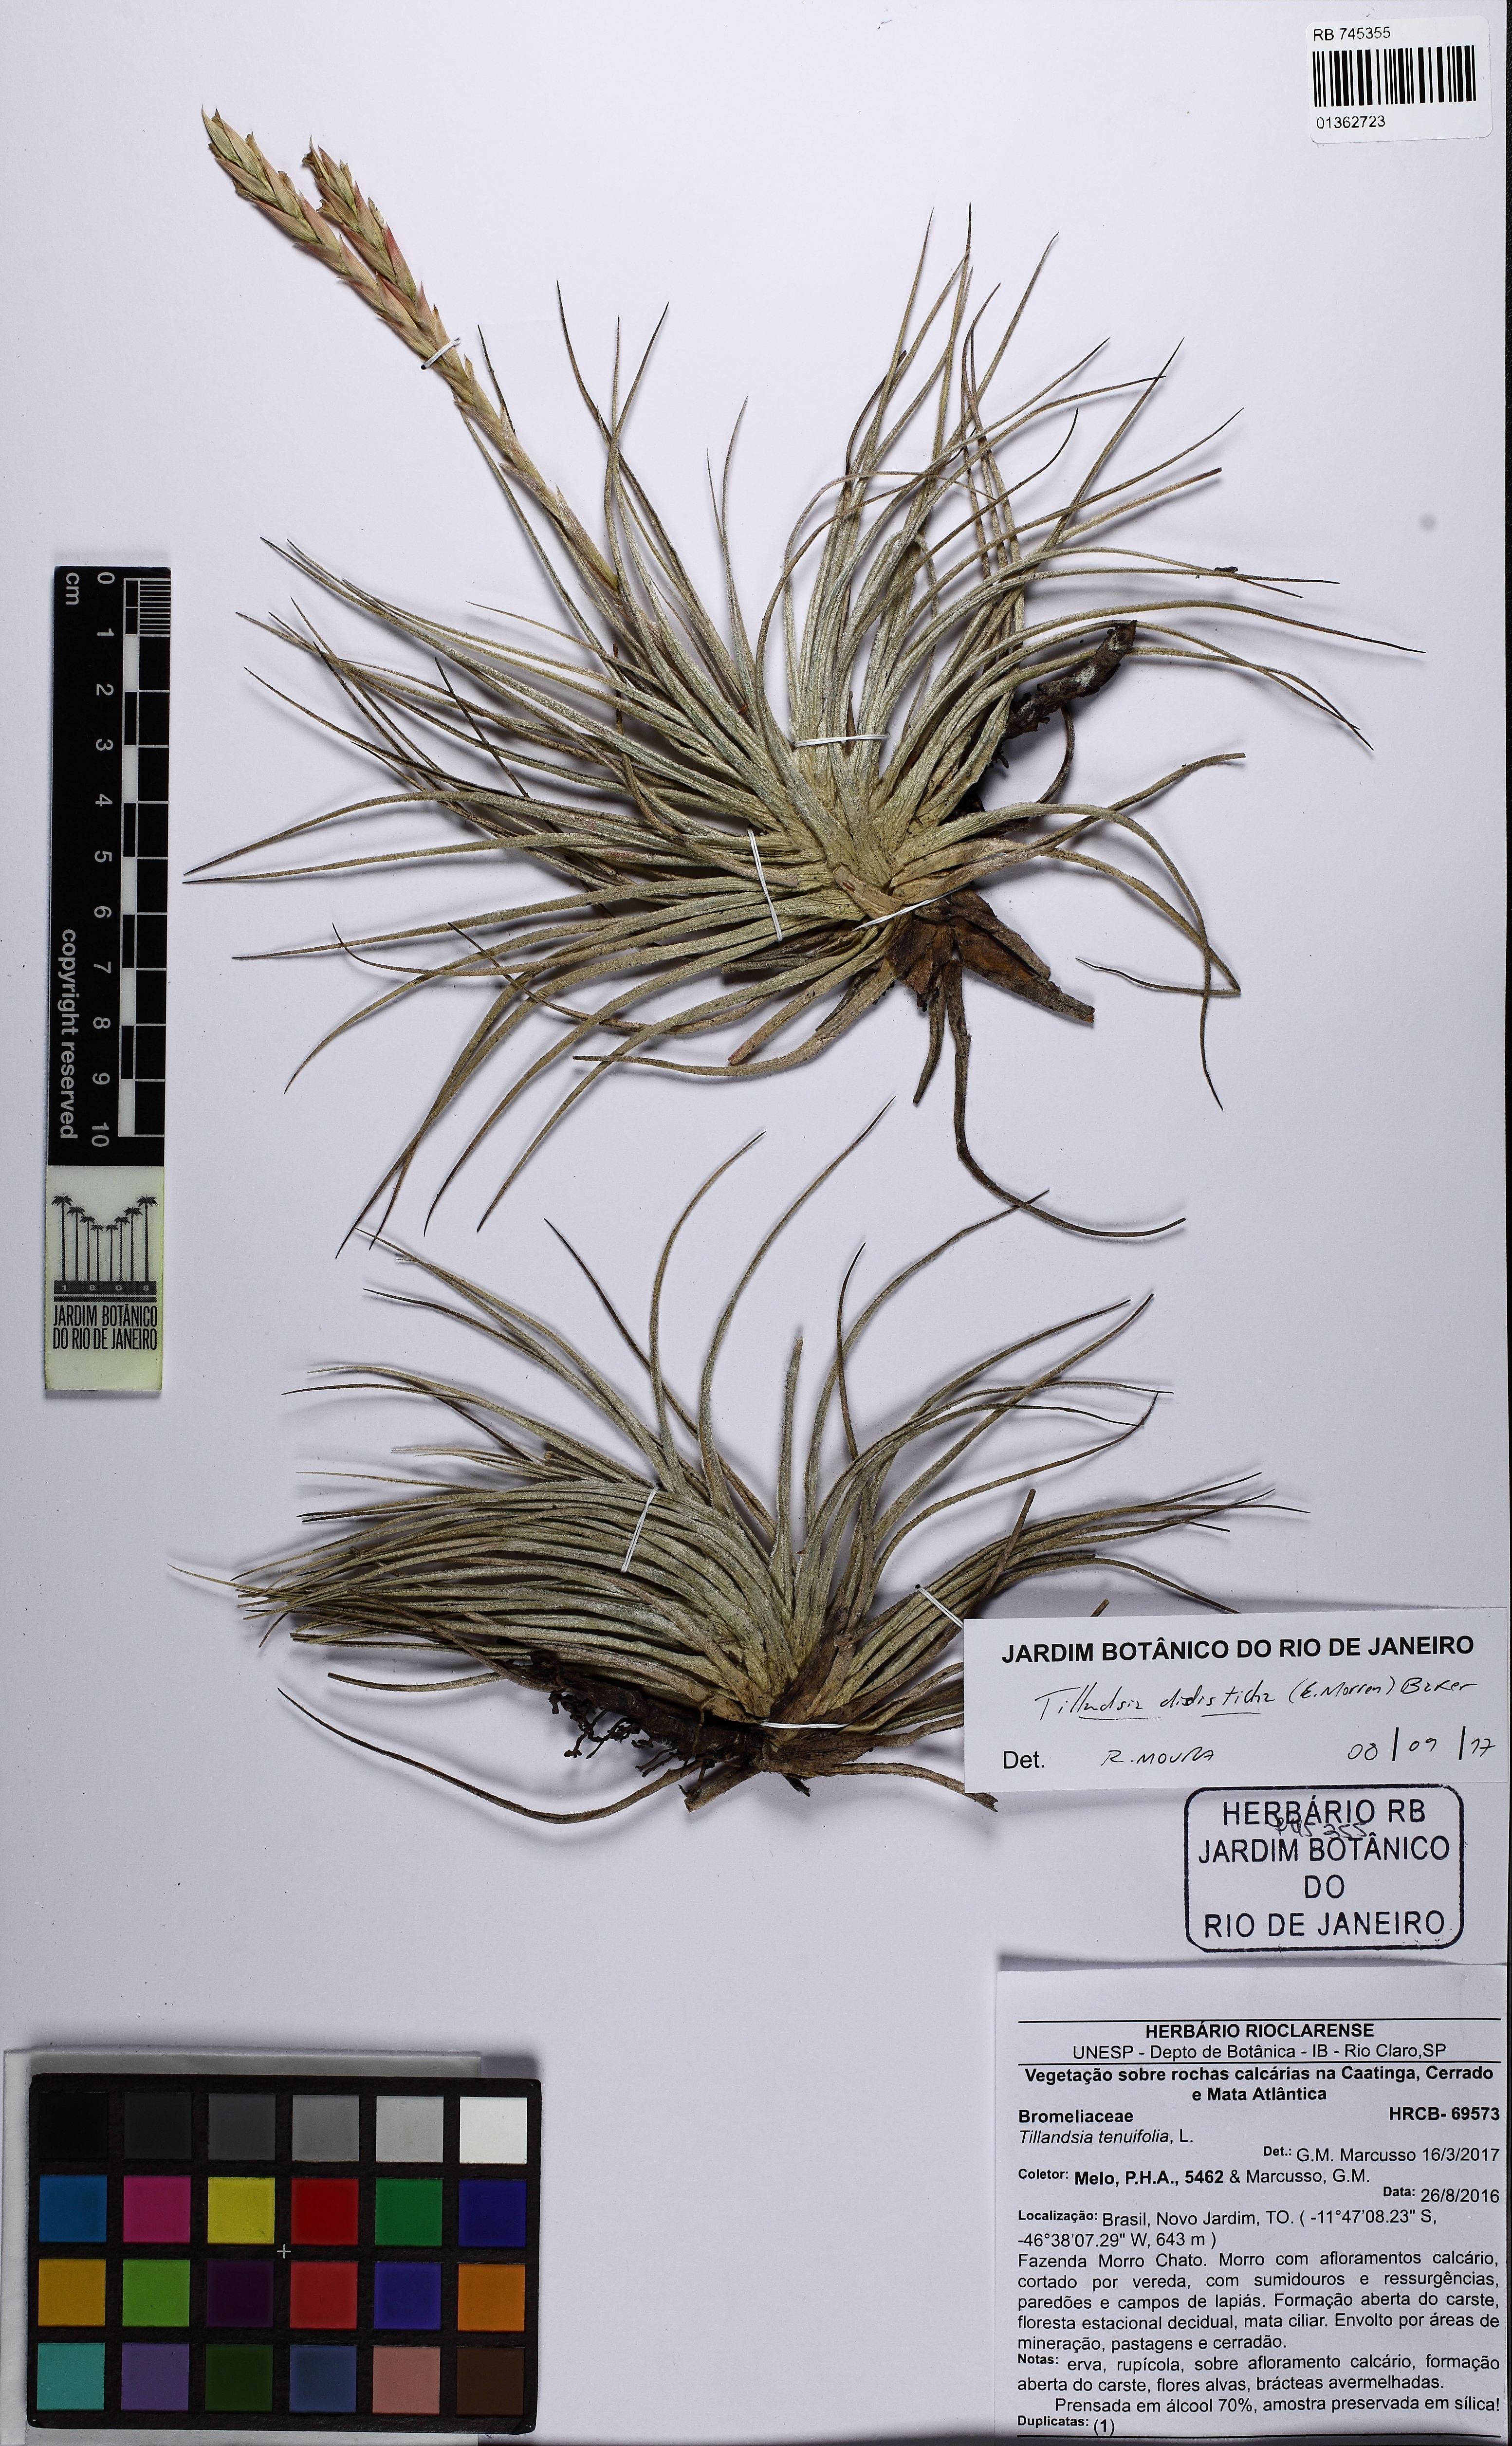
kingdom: Plantae
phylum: Tracheophyta
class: Liliopsida
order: Poales
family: Bromeliaceae
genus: Billbergia
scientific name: Billbergia distachia
